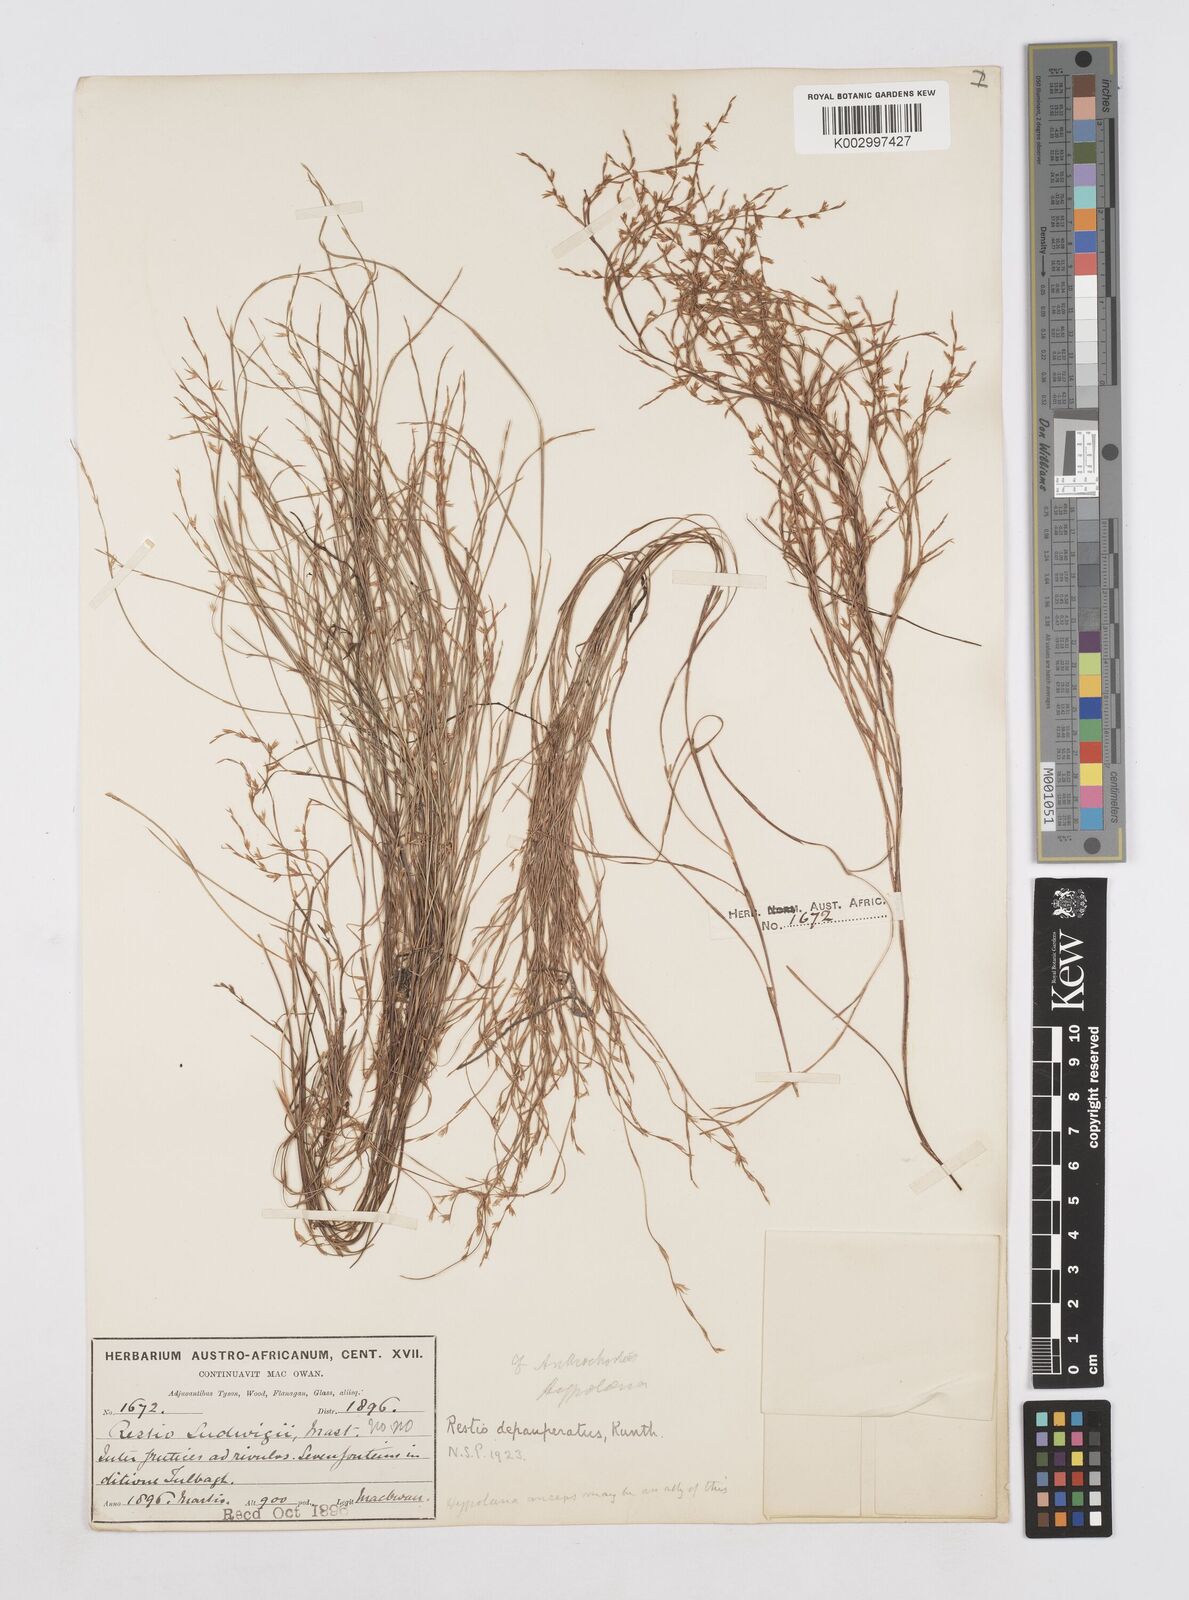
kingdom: Plantae
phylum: Tracheophyta
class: Liliopsida
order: Poales
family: Restionaceae
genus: Platycaulos
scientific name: Platycaulos depauperatus
